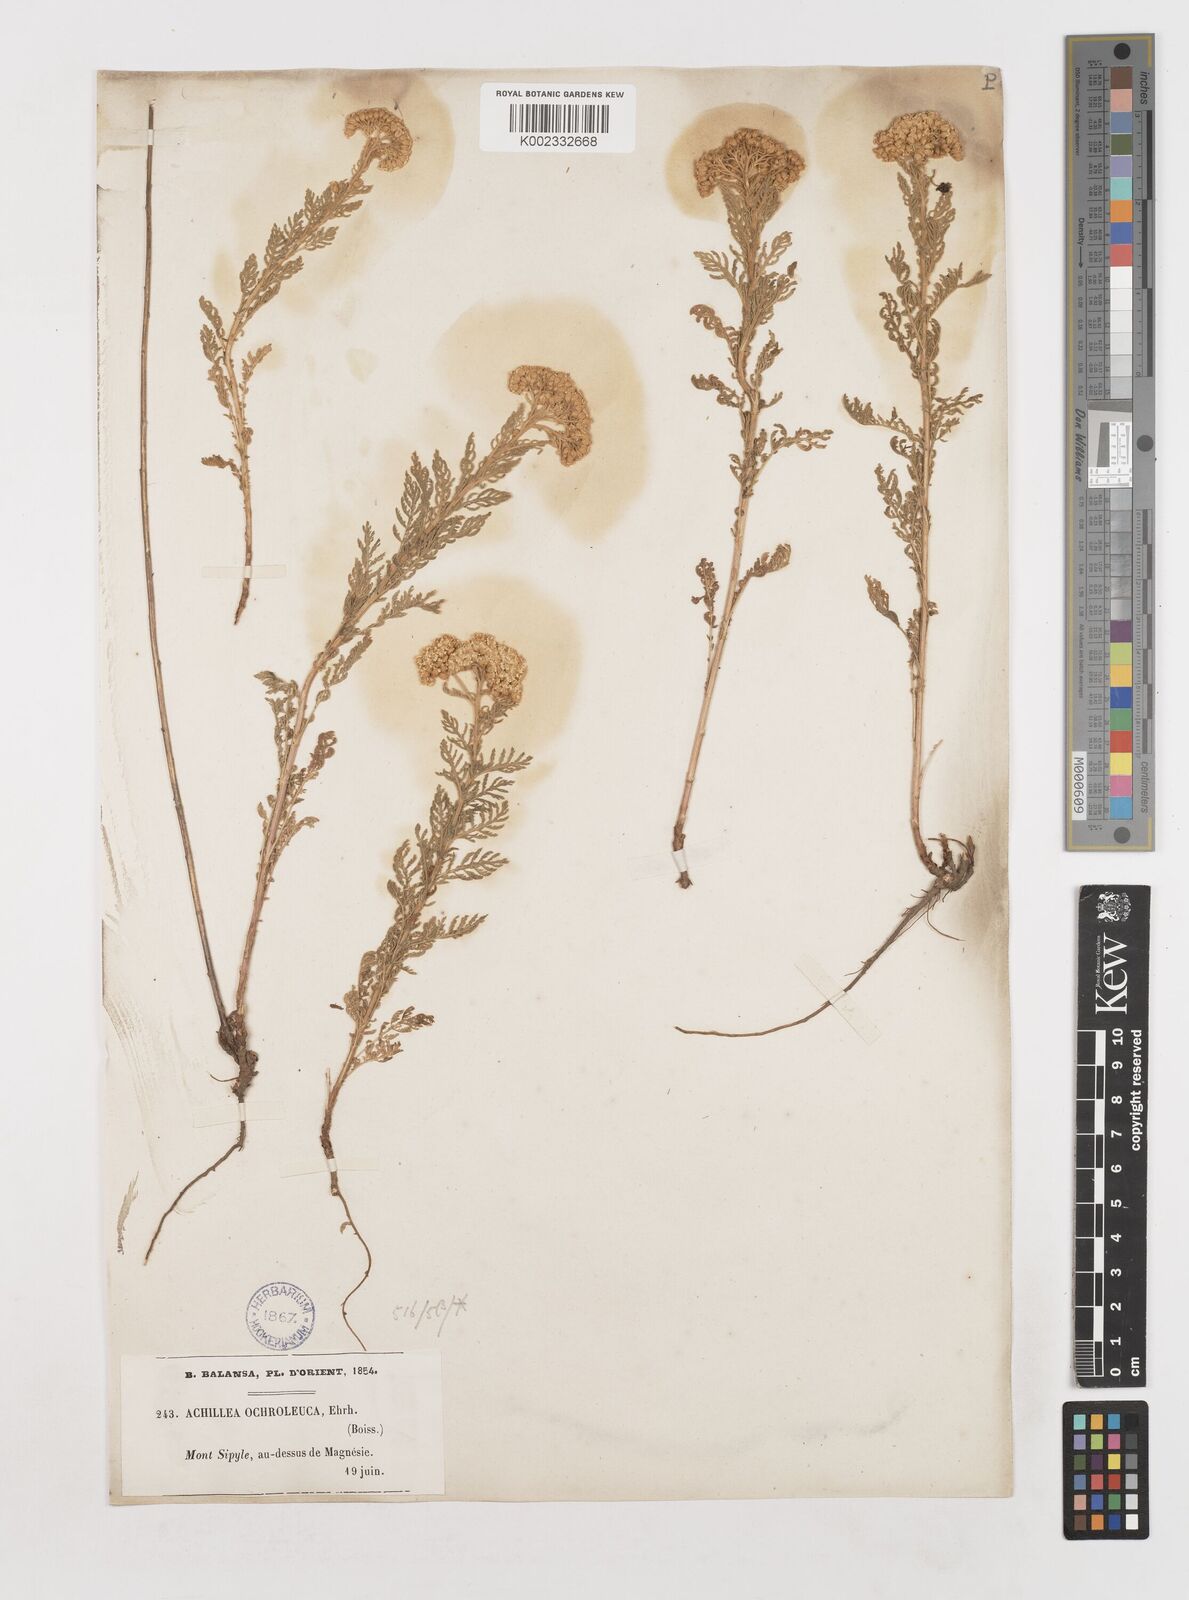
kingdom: Plantae
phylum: Tracheophyta
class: Magnoliopsida
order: Asterales
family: Asteraceae
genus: Achillea
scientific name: Achillea nobilis
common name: Noble yarrow
